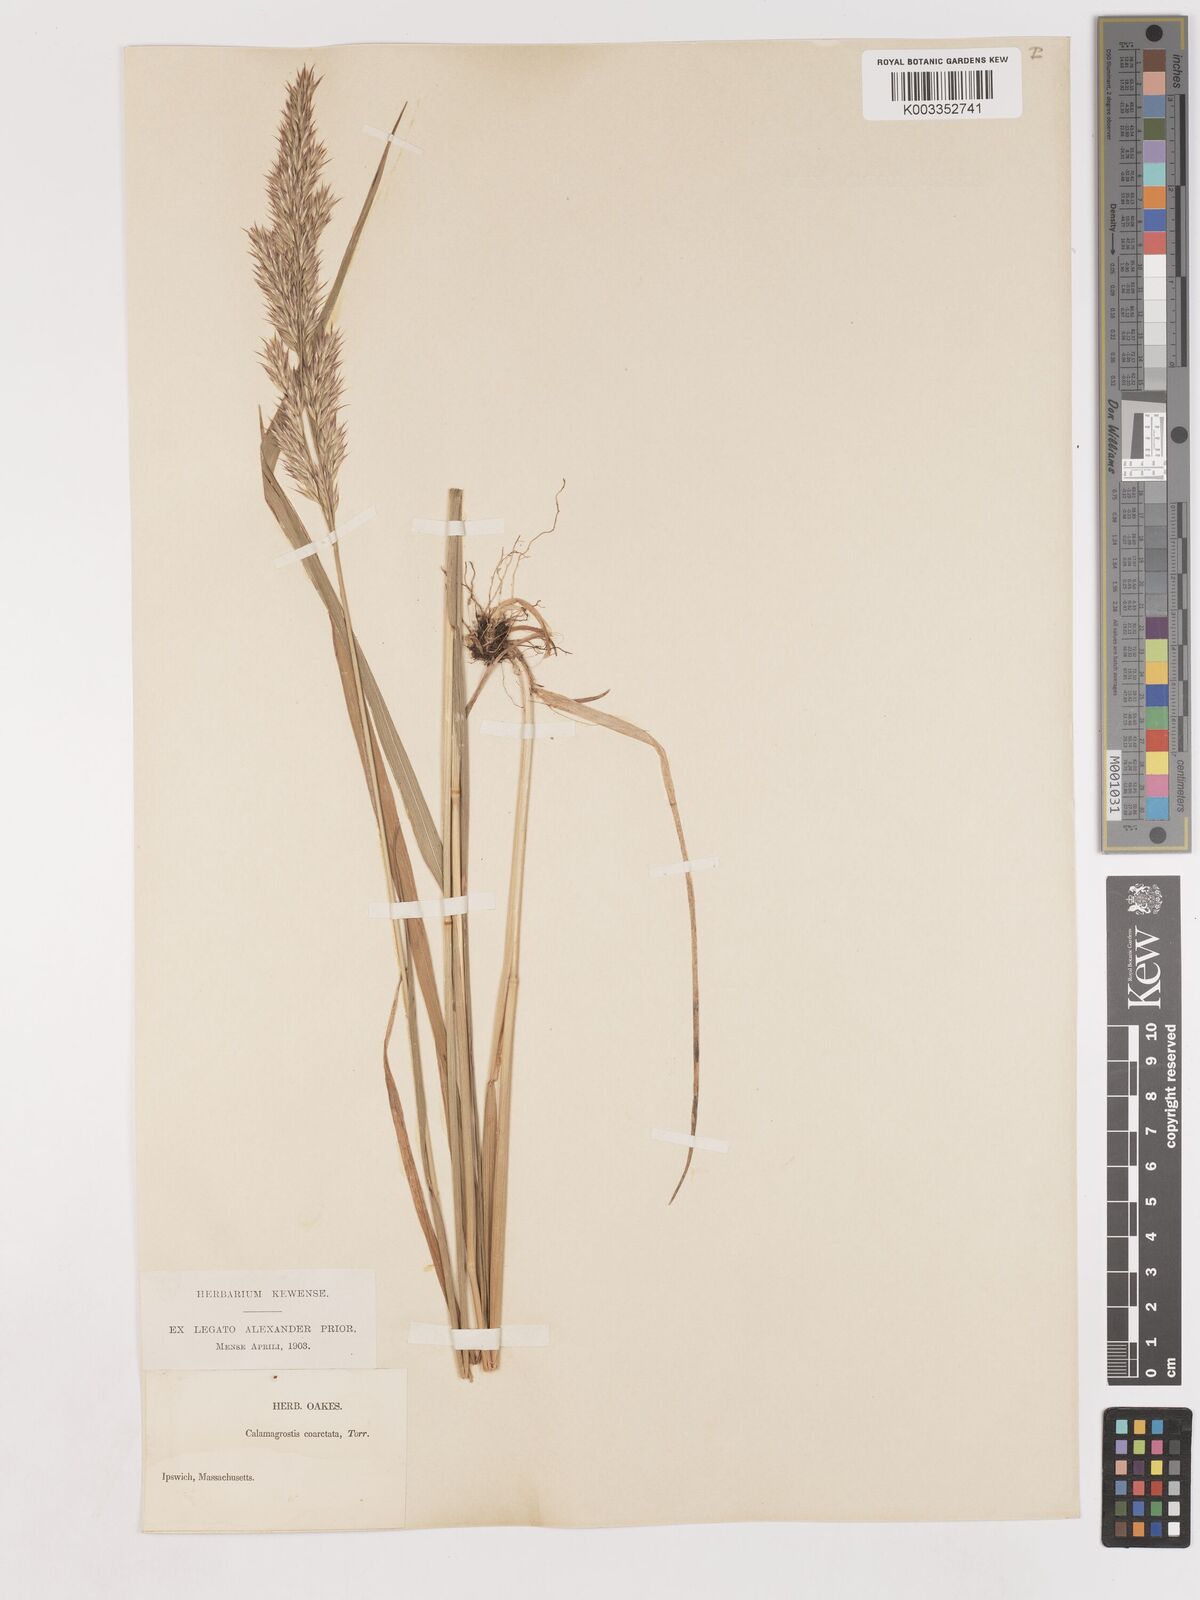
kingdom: Plantae
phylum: Tracheophyta
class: Liliopsida
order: Poales
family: Poaceae
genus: Calamagrostis
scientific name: Calamagrostis canadensis
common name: Canada bluejoint
